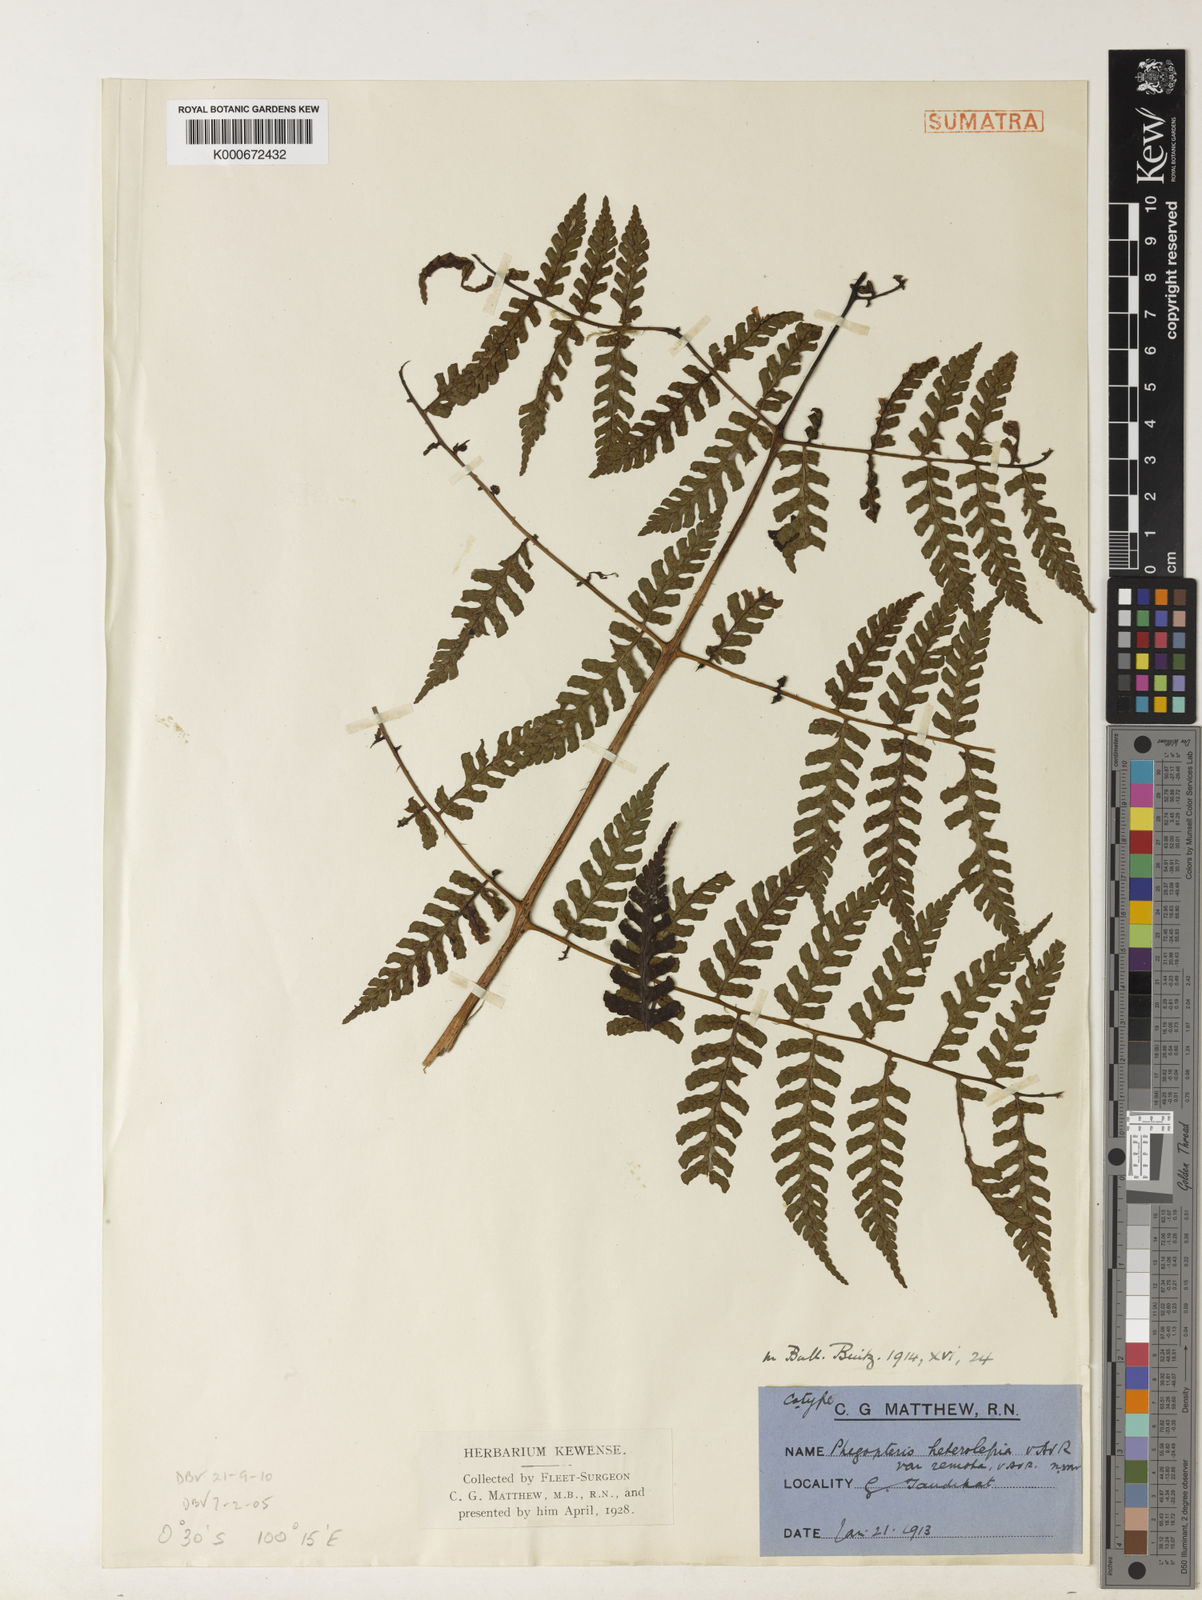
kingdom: Plantae
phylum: Tracheophyta
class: Polypodiopsida
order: Polypodiales
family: Dryopteridaceae
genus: Dryopteris
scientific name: Dryopteris subarborea
